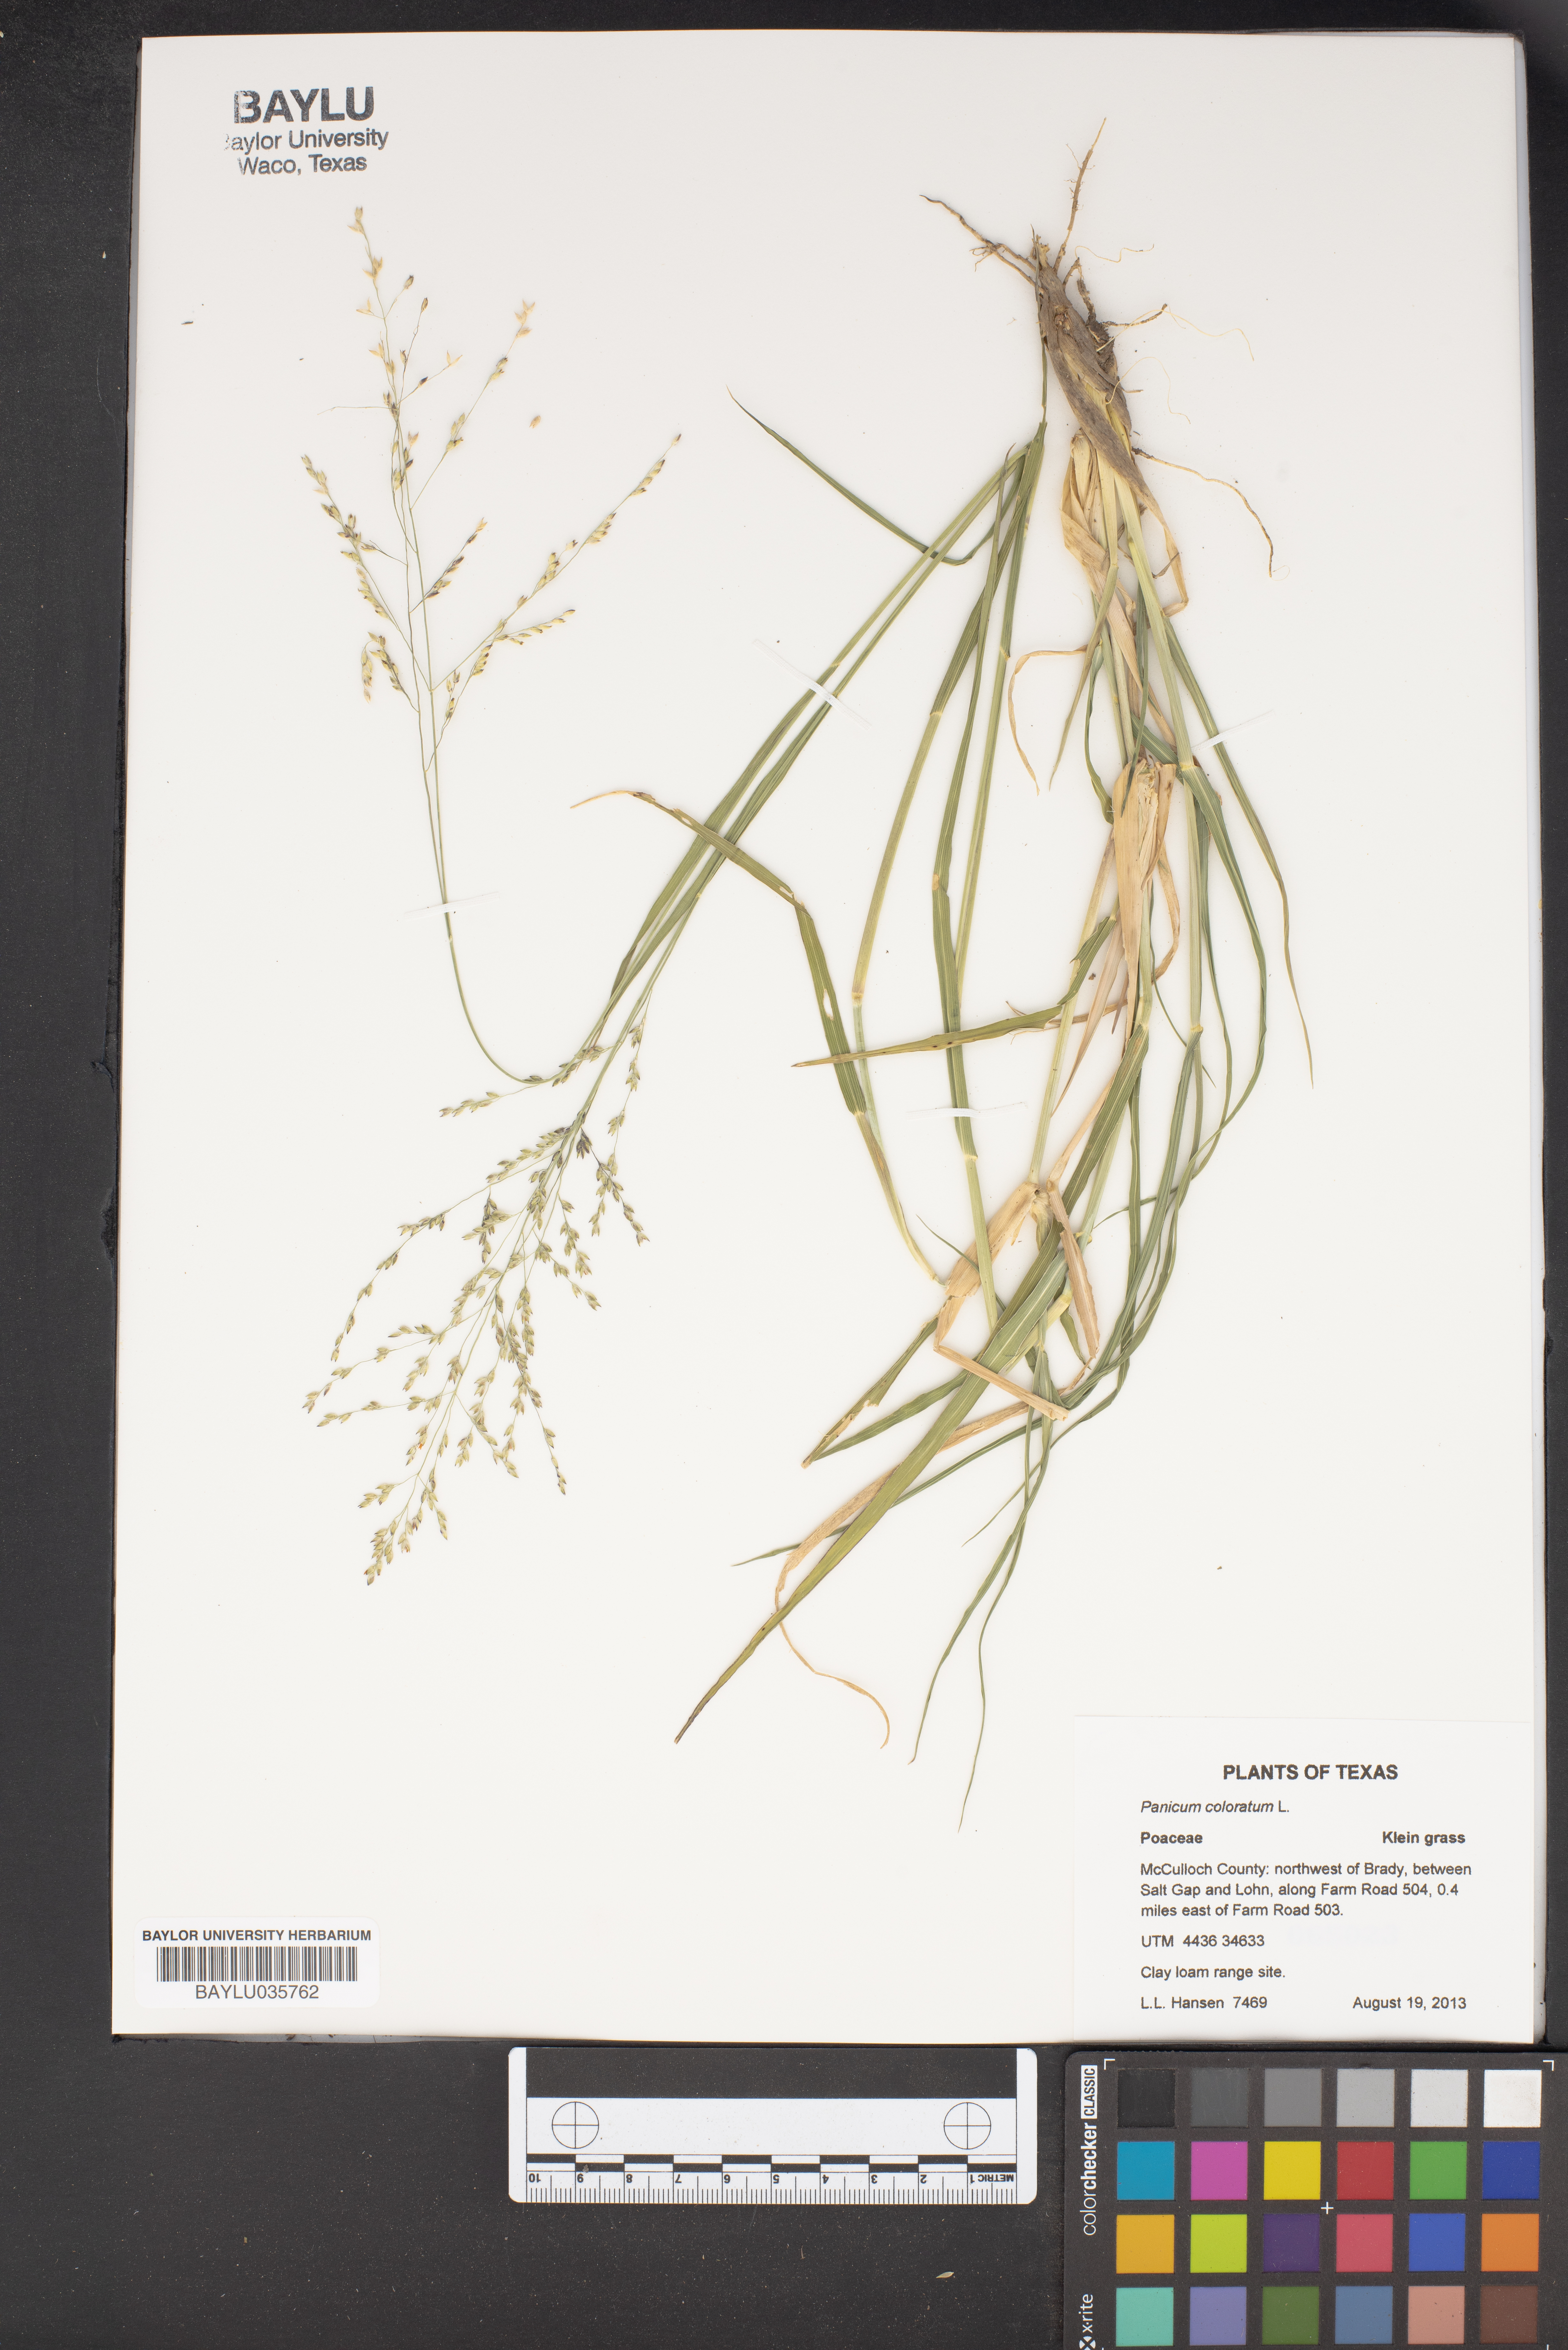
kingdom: Plantae
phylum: Tracheophyta
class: Liliopsida
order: Poales
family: Poaceae
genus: Panicum
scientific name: Panicum coloratum
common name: Kleingrass
